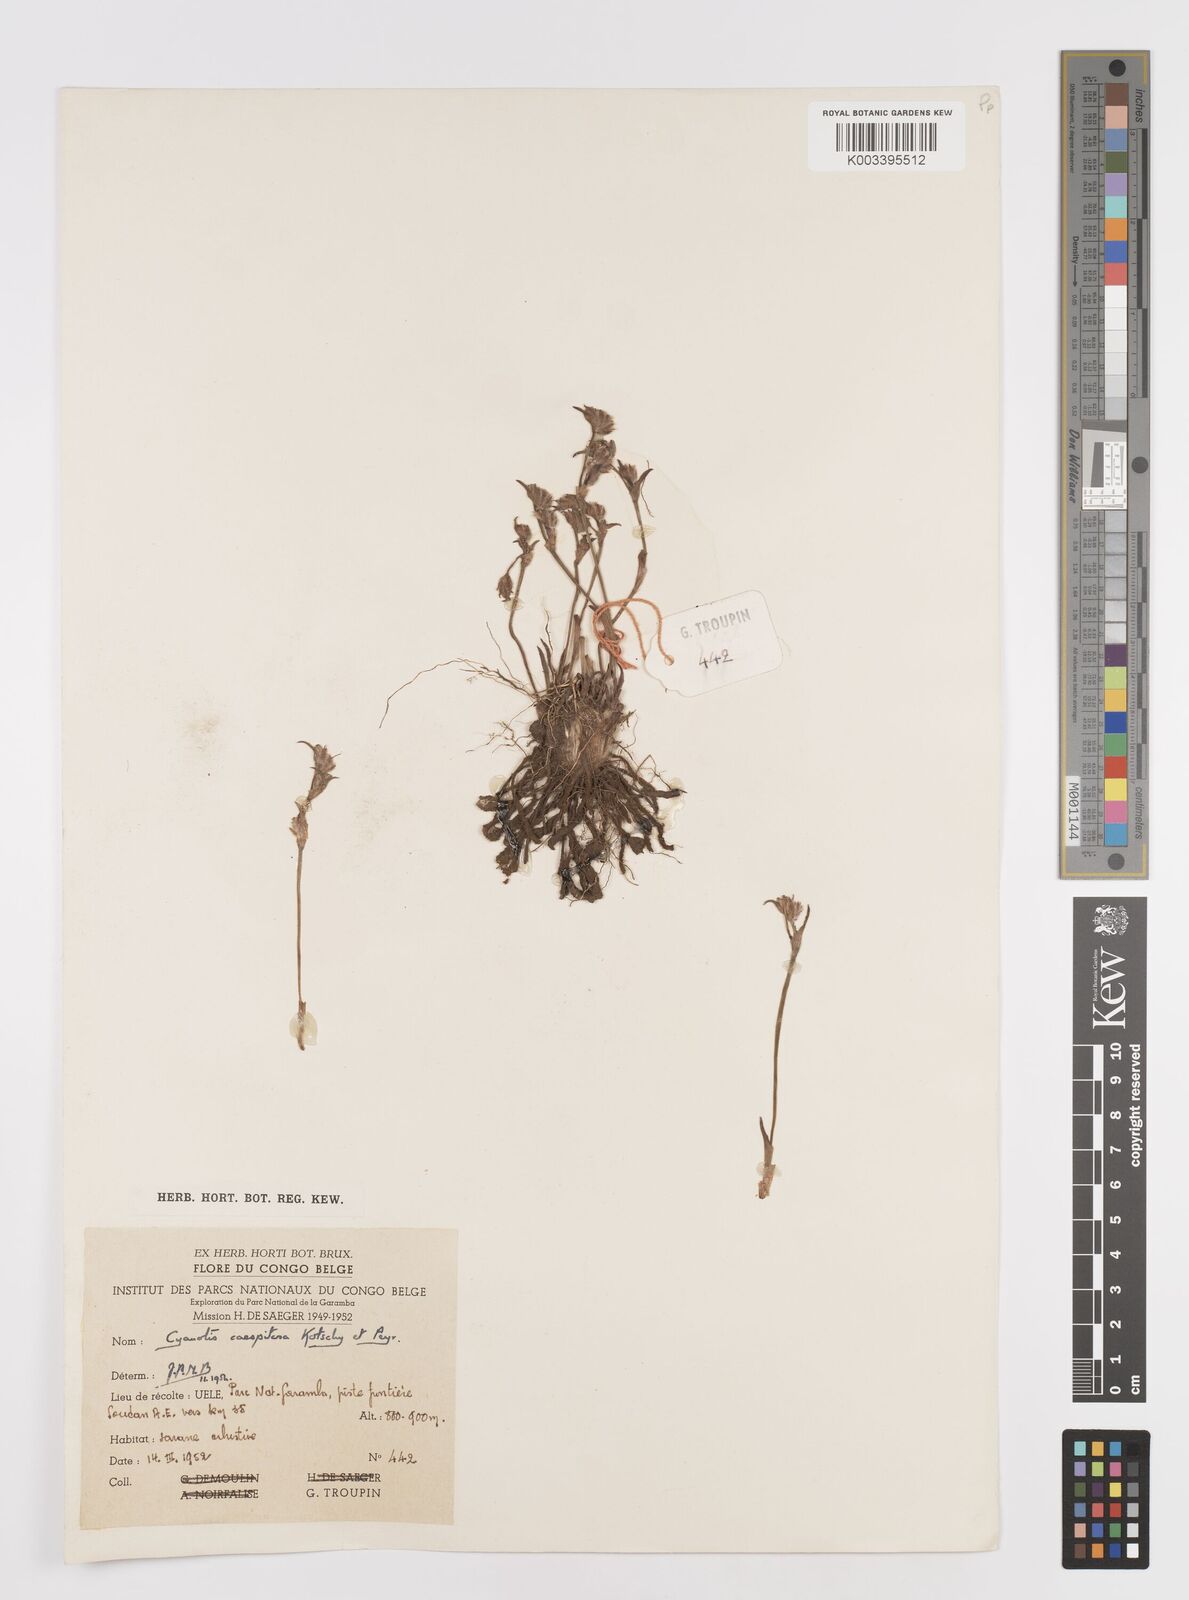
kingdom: Plantae
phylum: Tracheophyta
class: Liliopsida
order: Commelinales
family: Commelinaceae
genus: Cyanotis
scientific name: Cyanotis caespitosa
